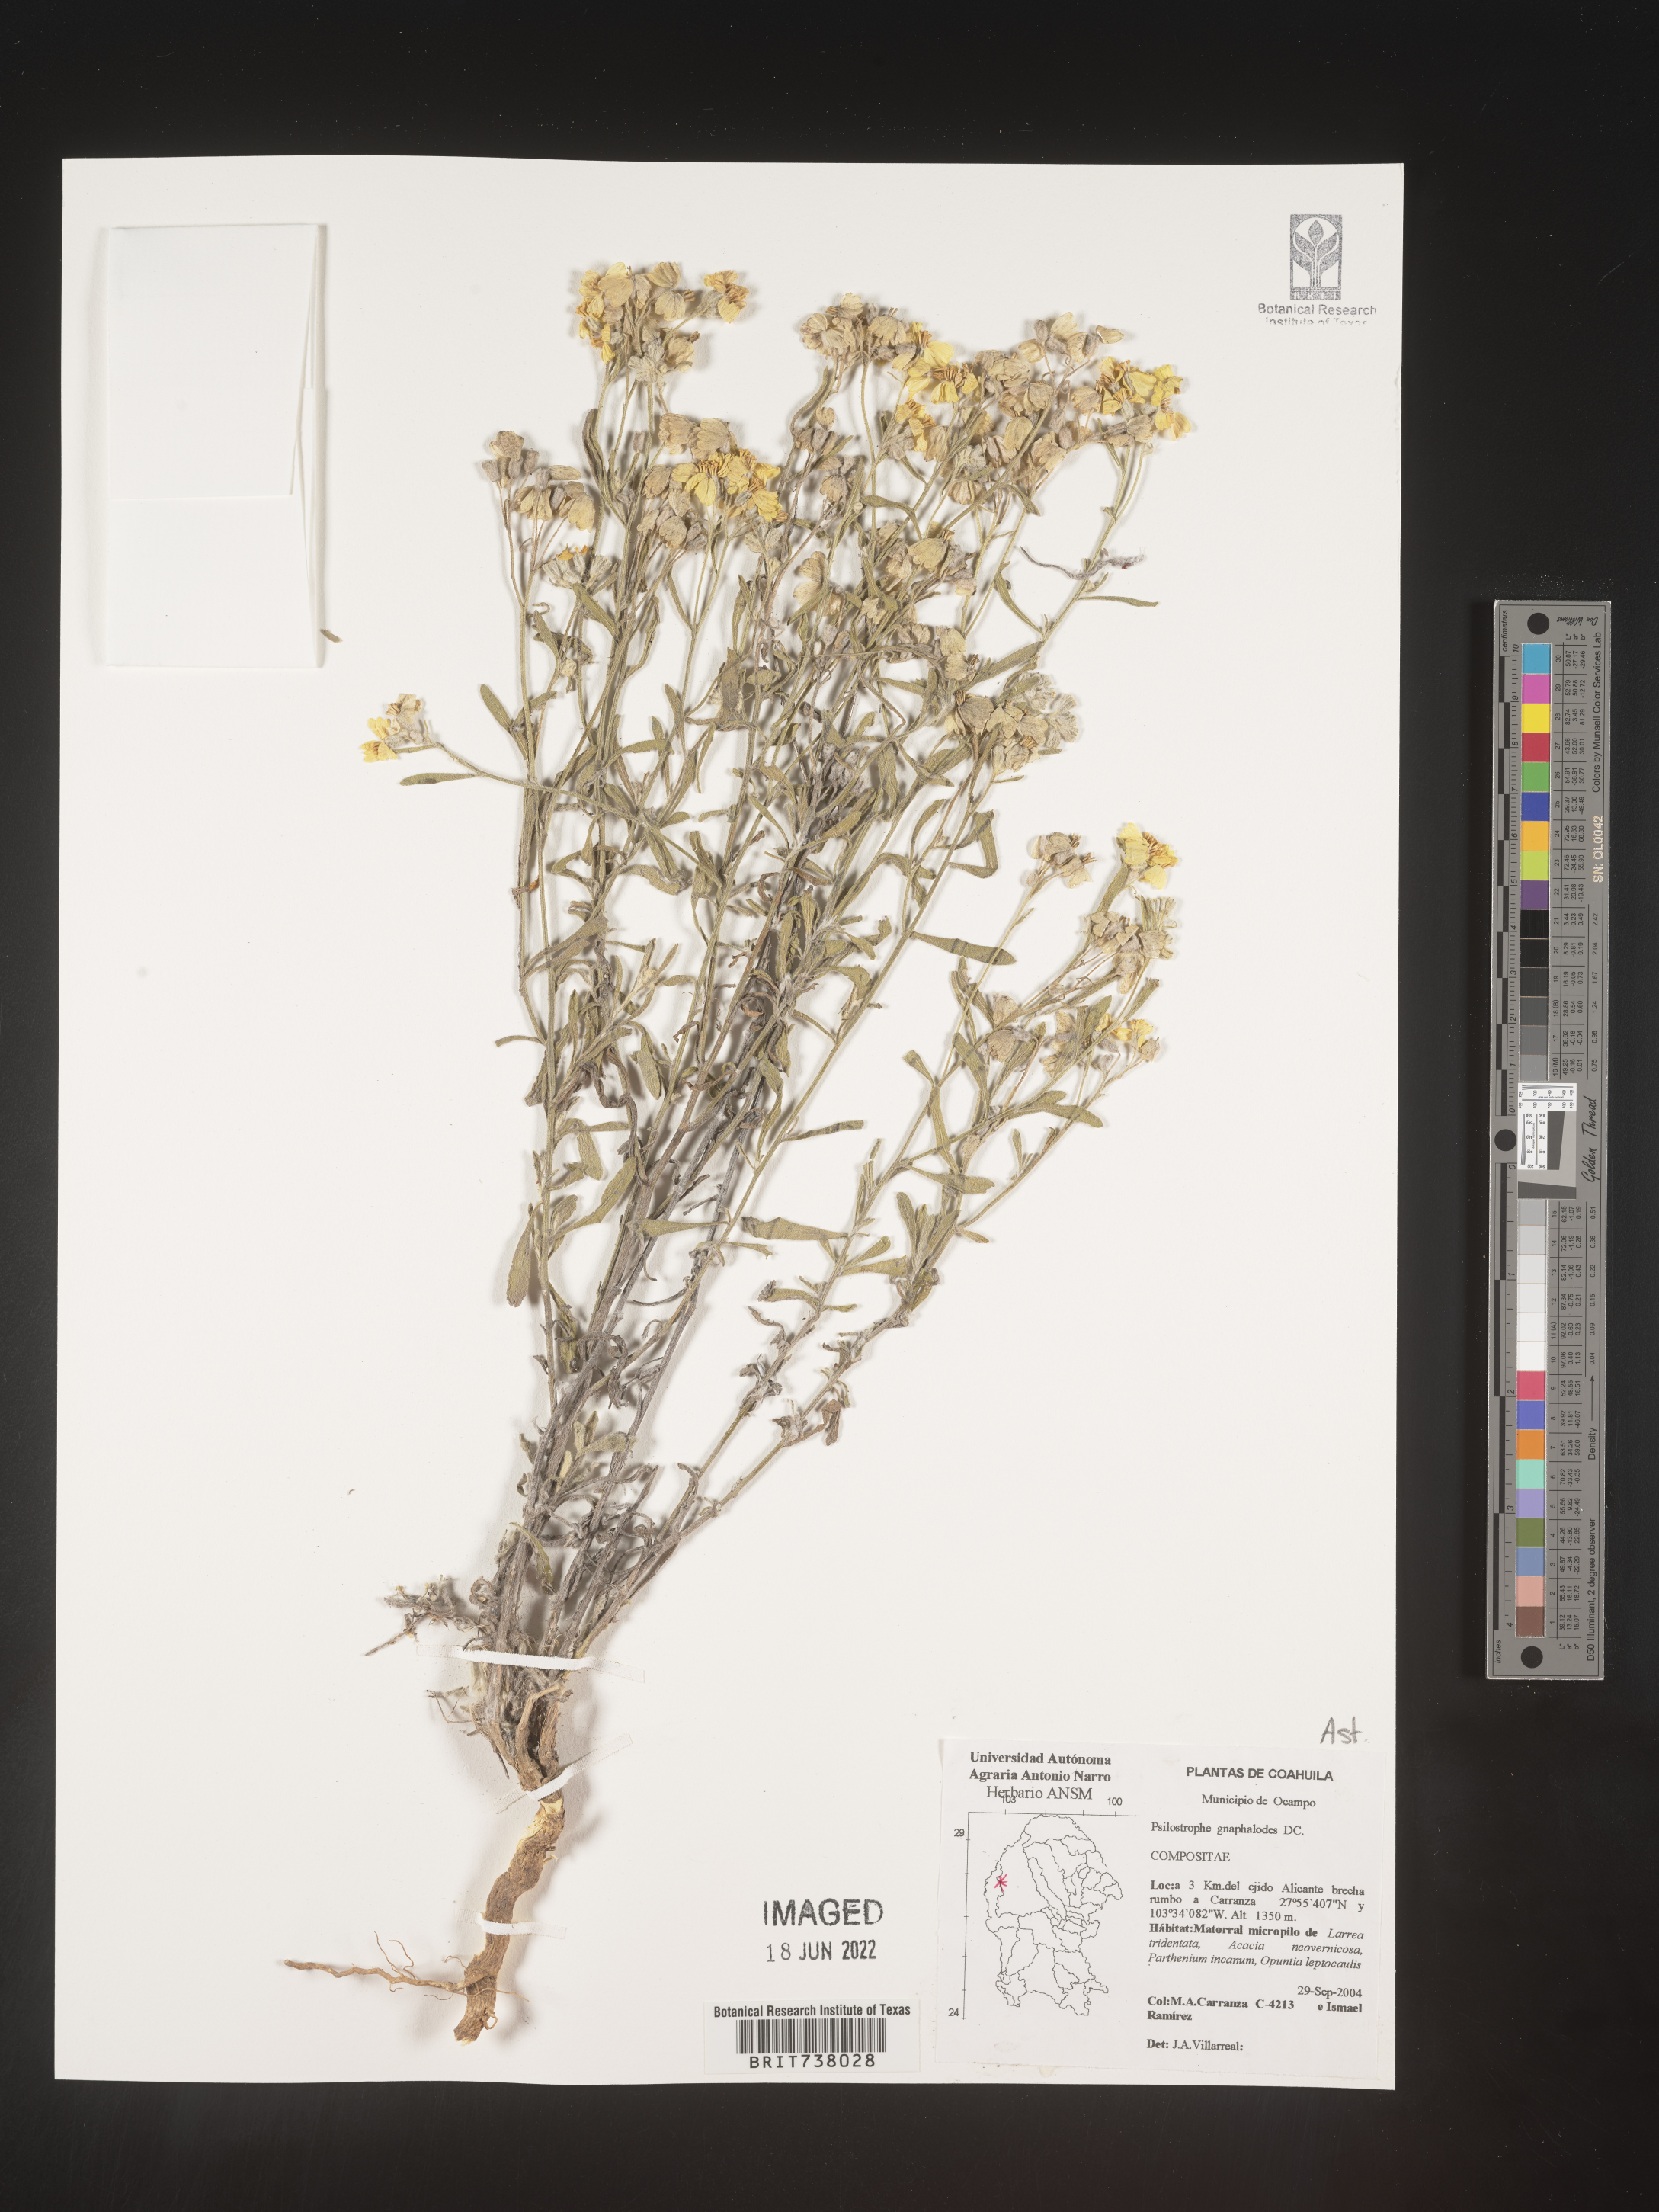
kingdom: Plantae
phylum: Tracheophyta
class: Magnoliopsida
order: Asterales
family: Asteraceae
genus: Psilostrophe
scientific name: Psilostrophe
